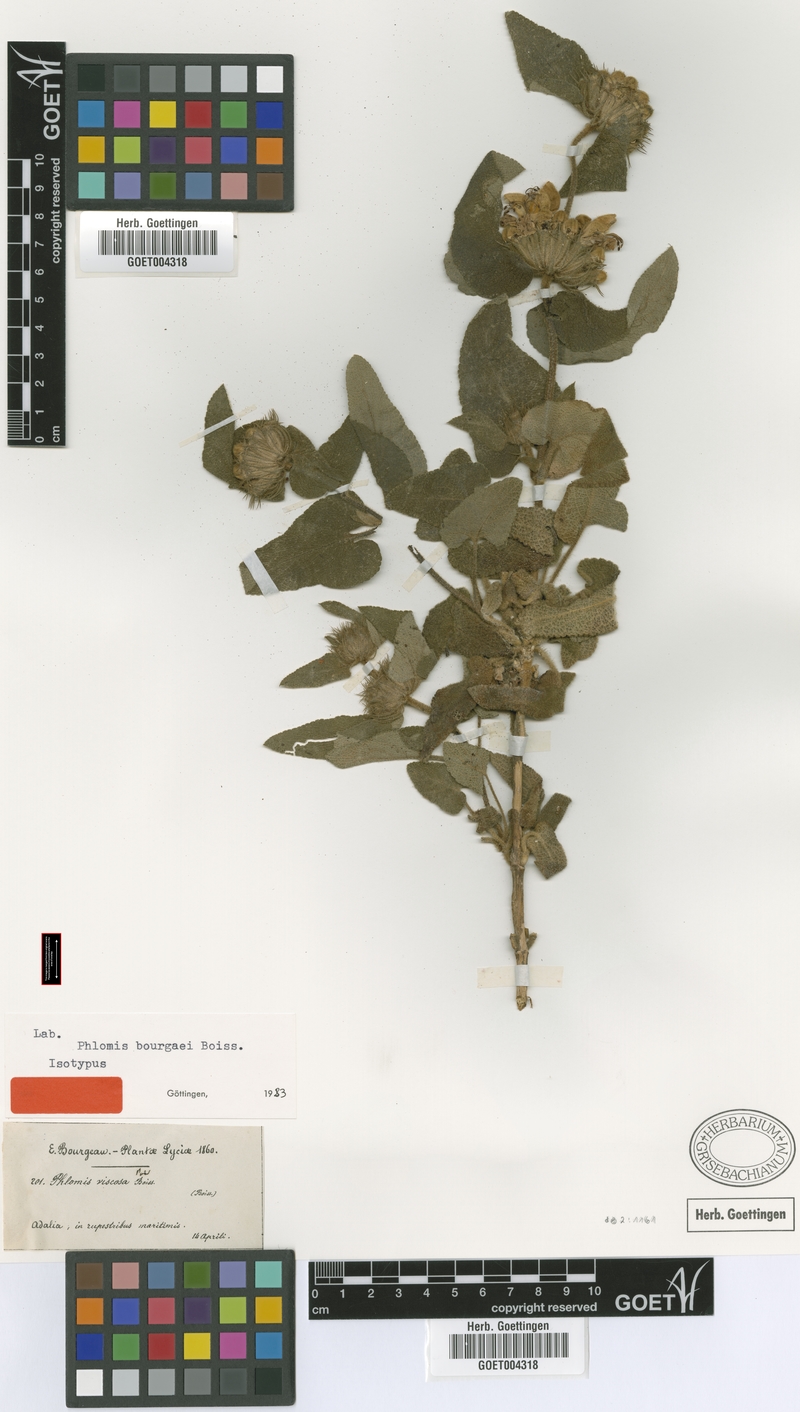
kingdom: Plantae
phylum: Tracheophyta
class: Magnoliopsida
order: Lamiales
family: Lamiaceae
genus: Phlomis
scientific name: Phlomis bourgaei
